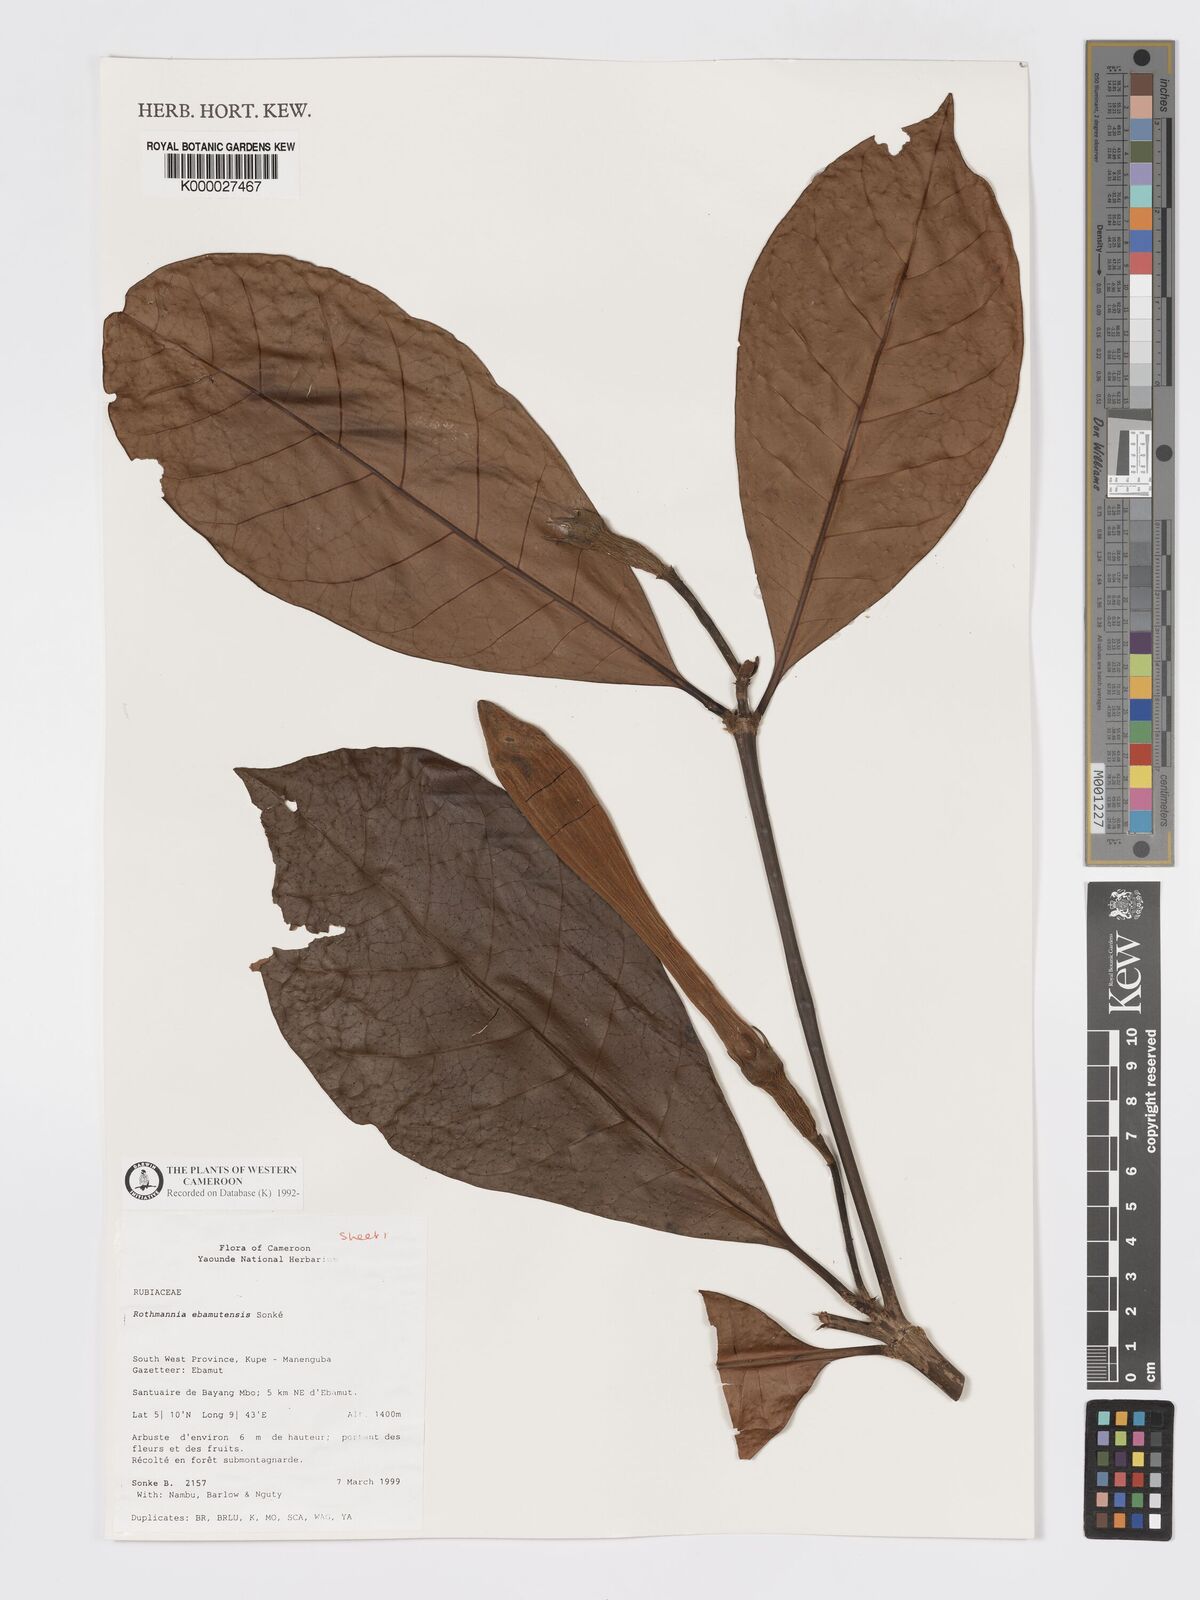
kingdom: Plantae
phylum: Tracheophyta
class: Magnoliopsida
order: Gentianales
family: Rubiaceae
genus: Rothmannia
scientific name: Rothmannia
